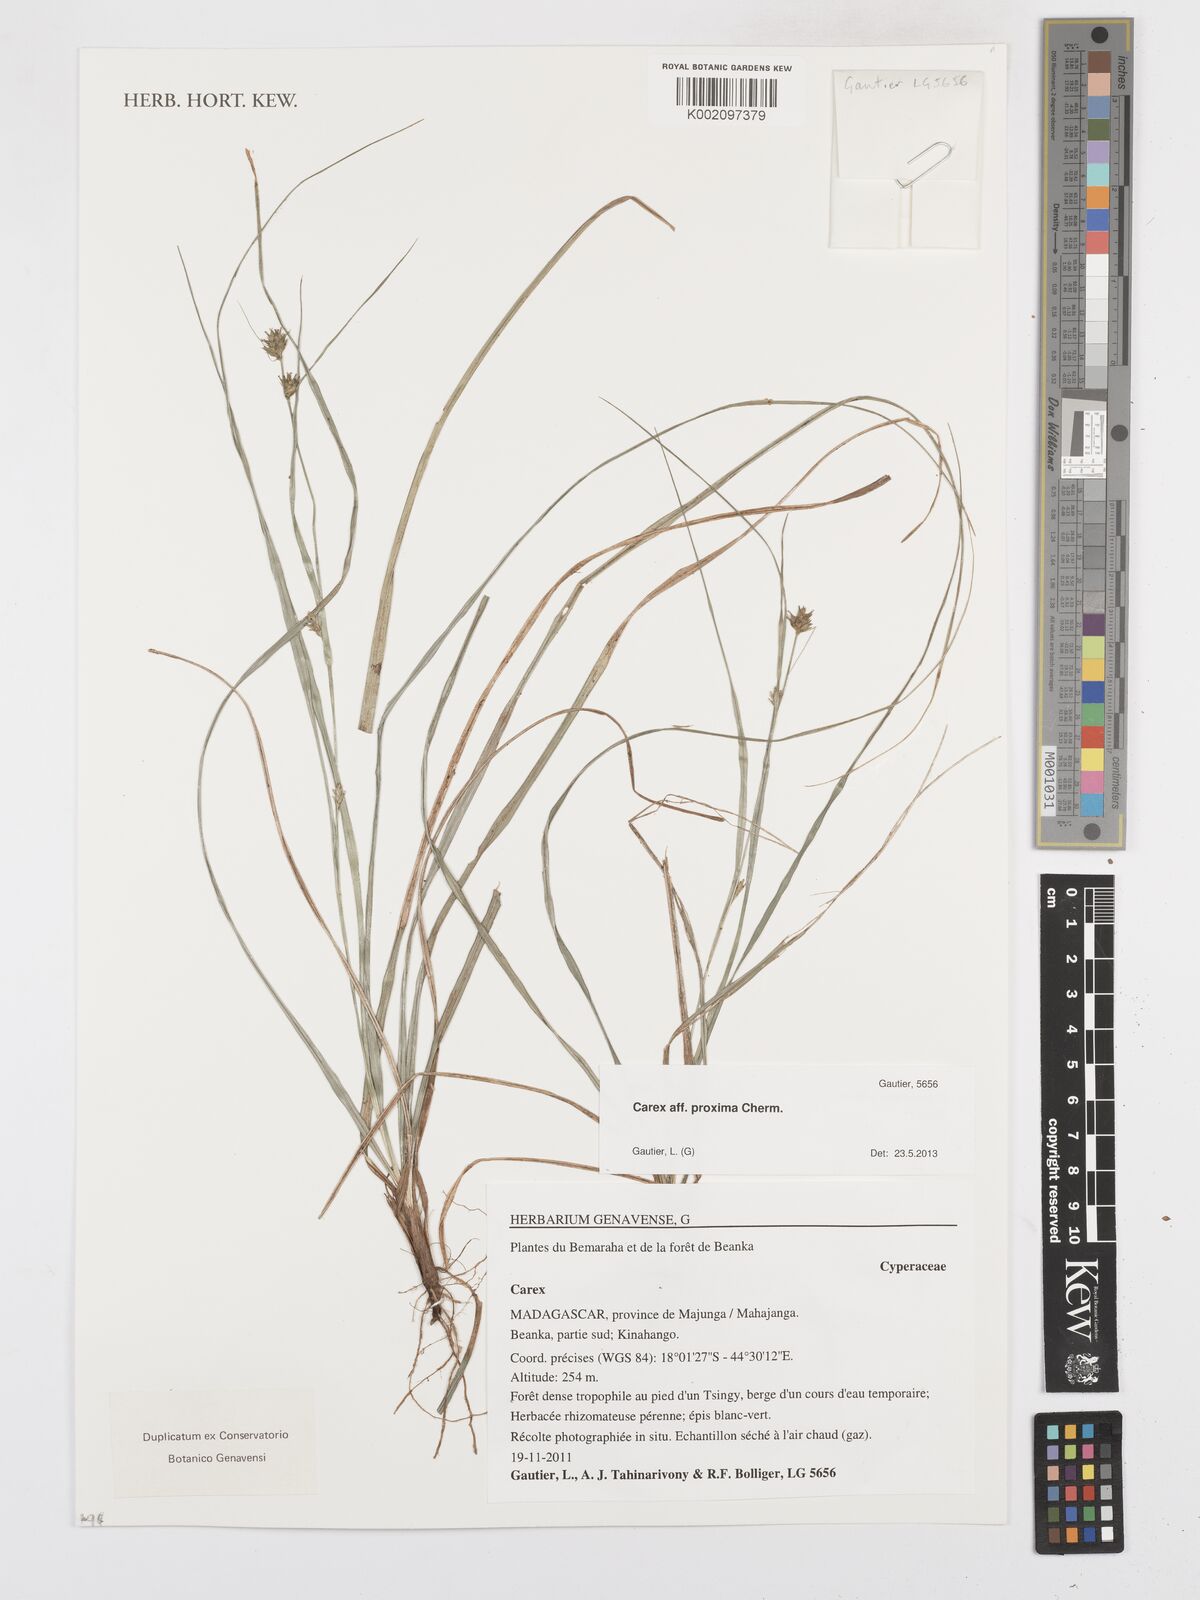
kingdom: Plantae
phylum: Tracheophyta
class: Liliopsida
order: Poales
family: Cyperaceae
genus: Carex
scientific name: Carex proxima
